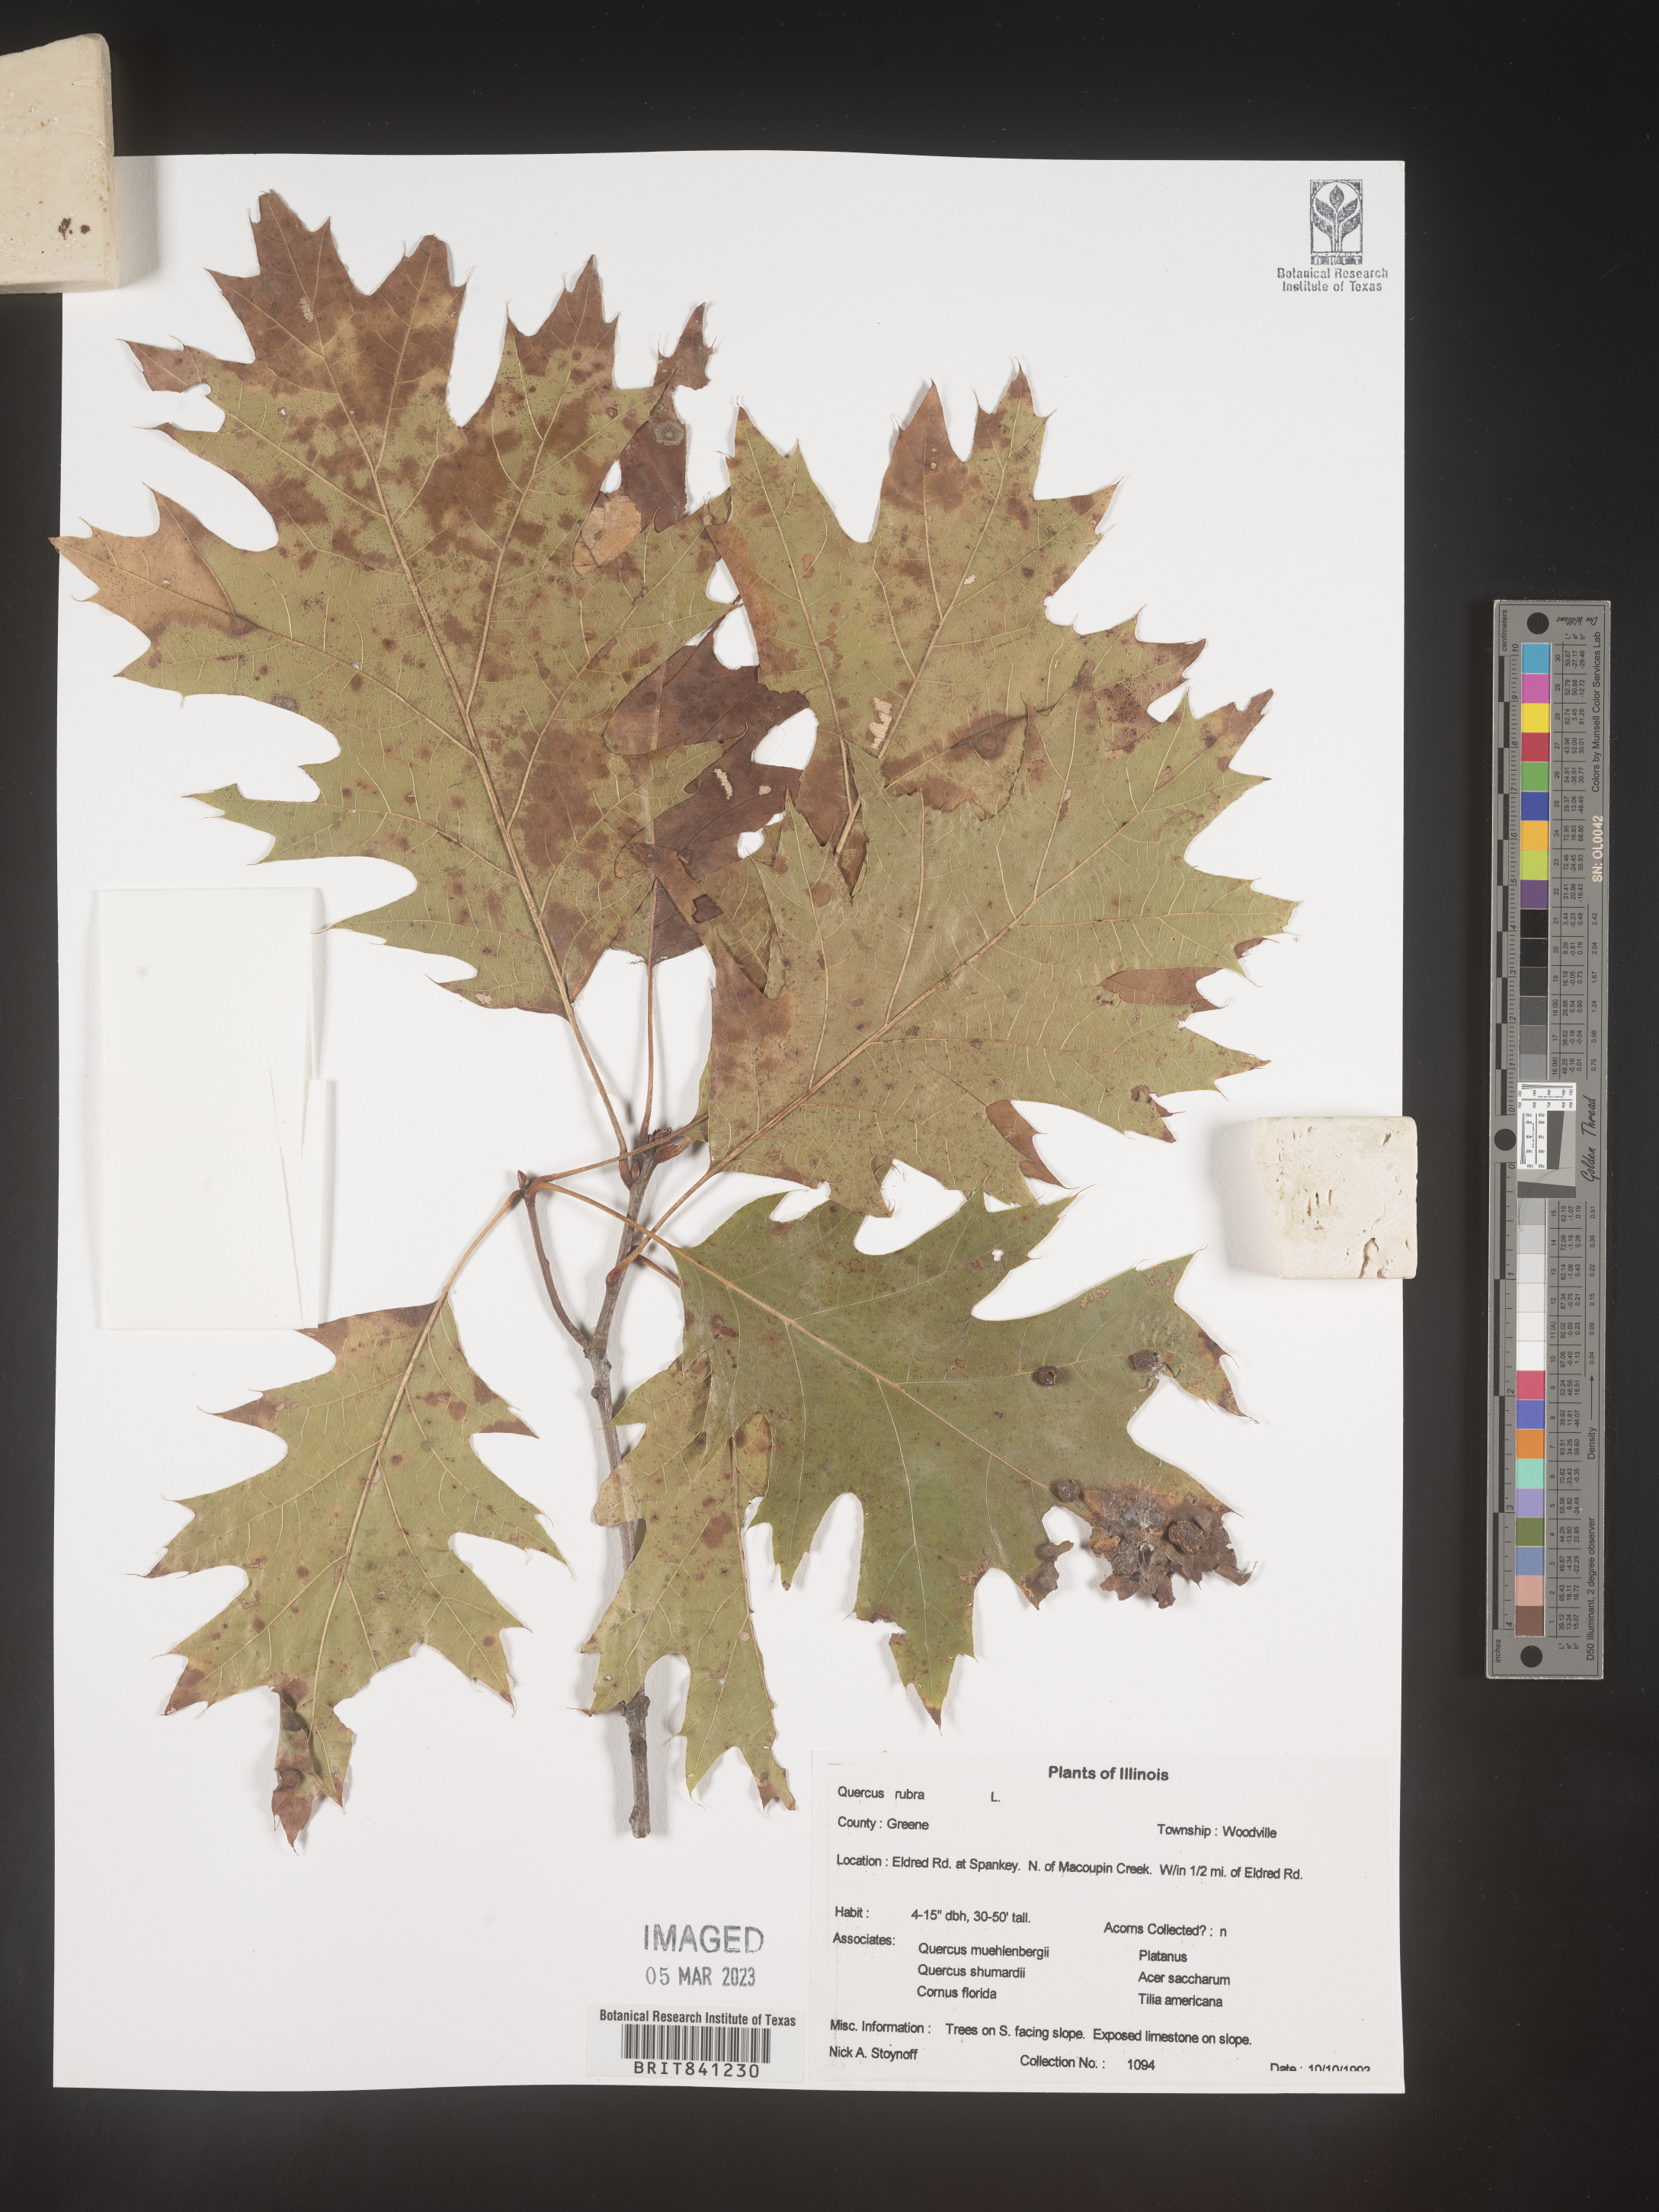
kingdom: Plantae
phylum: Tracheophyta
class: Magnoliopsida
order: Fagales
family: Fagaceae
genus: Quercus
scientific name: Quercus rubra
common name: Red oak
